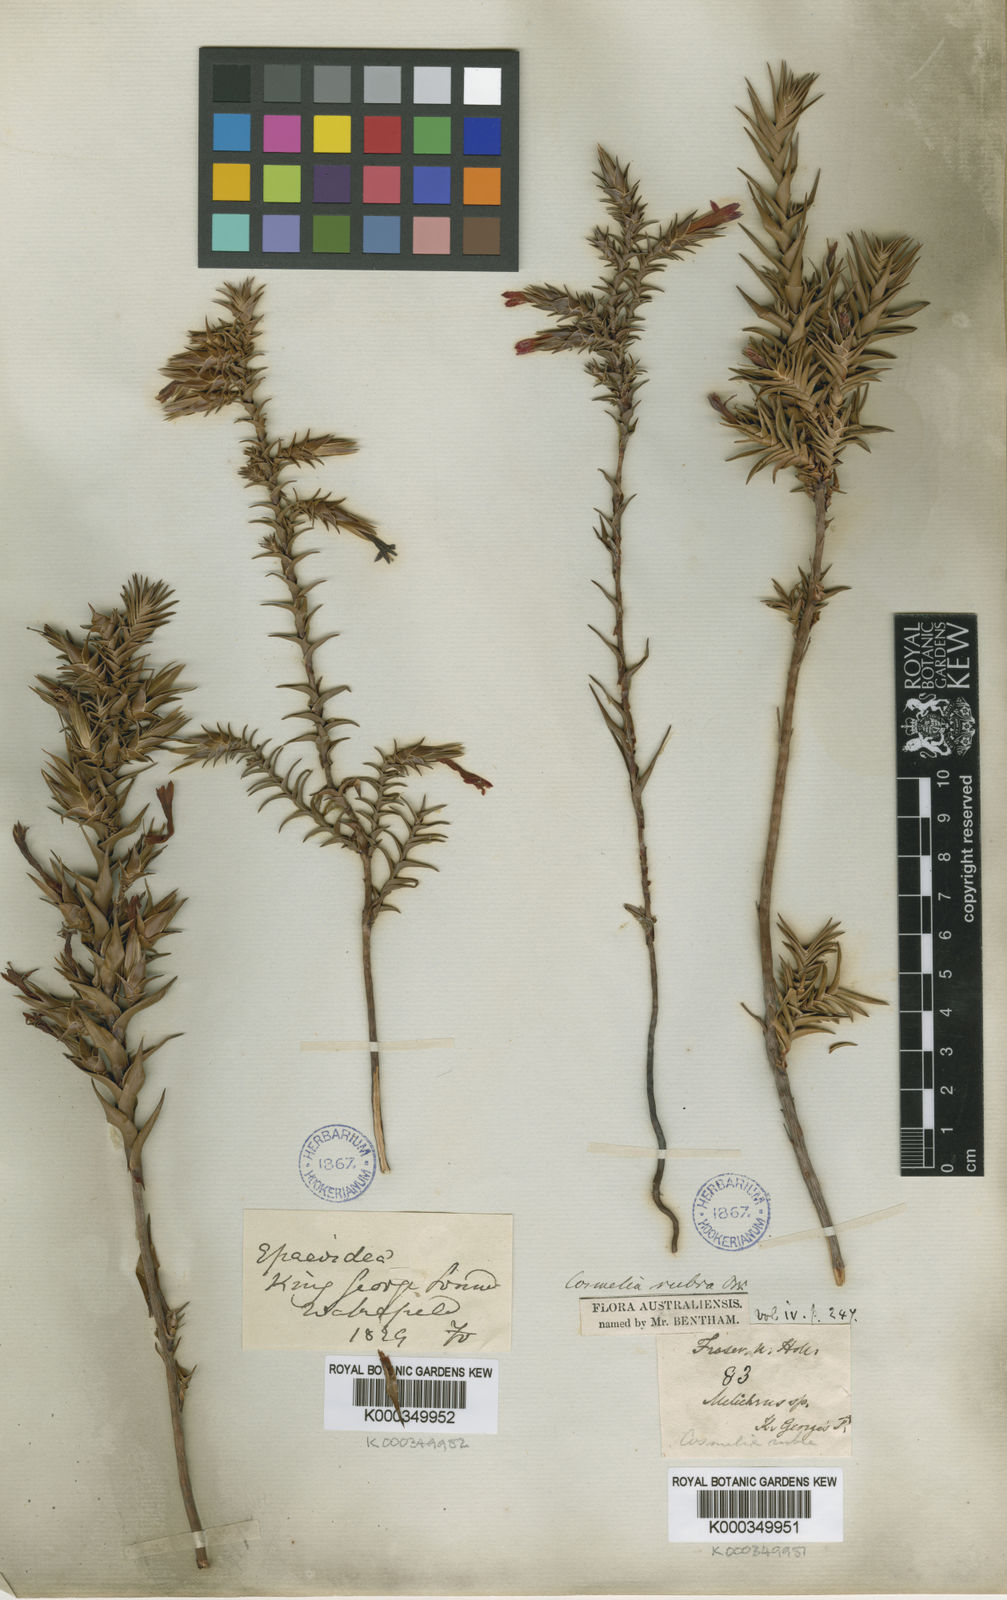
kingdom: Plantae
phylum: Tracheophyta
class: Magnoliopsida
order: Ericales
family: Ericaceae
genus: Cosmelia
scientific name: Cosmelia rubra
